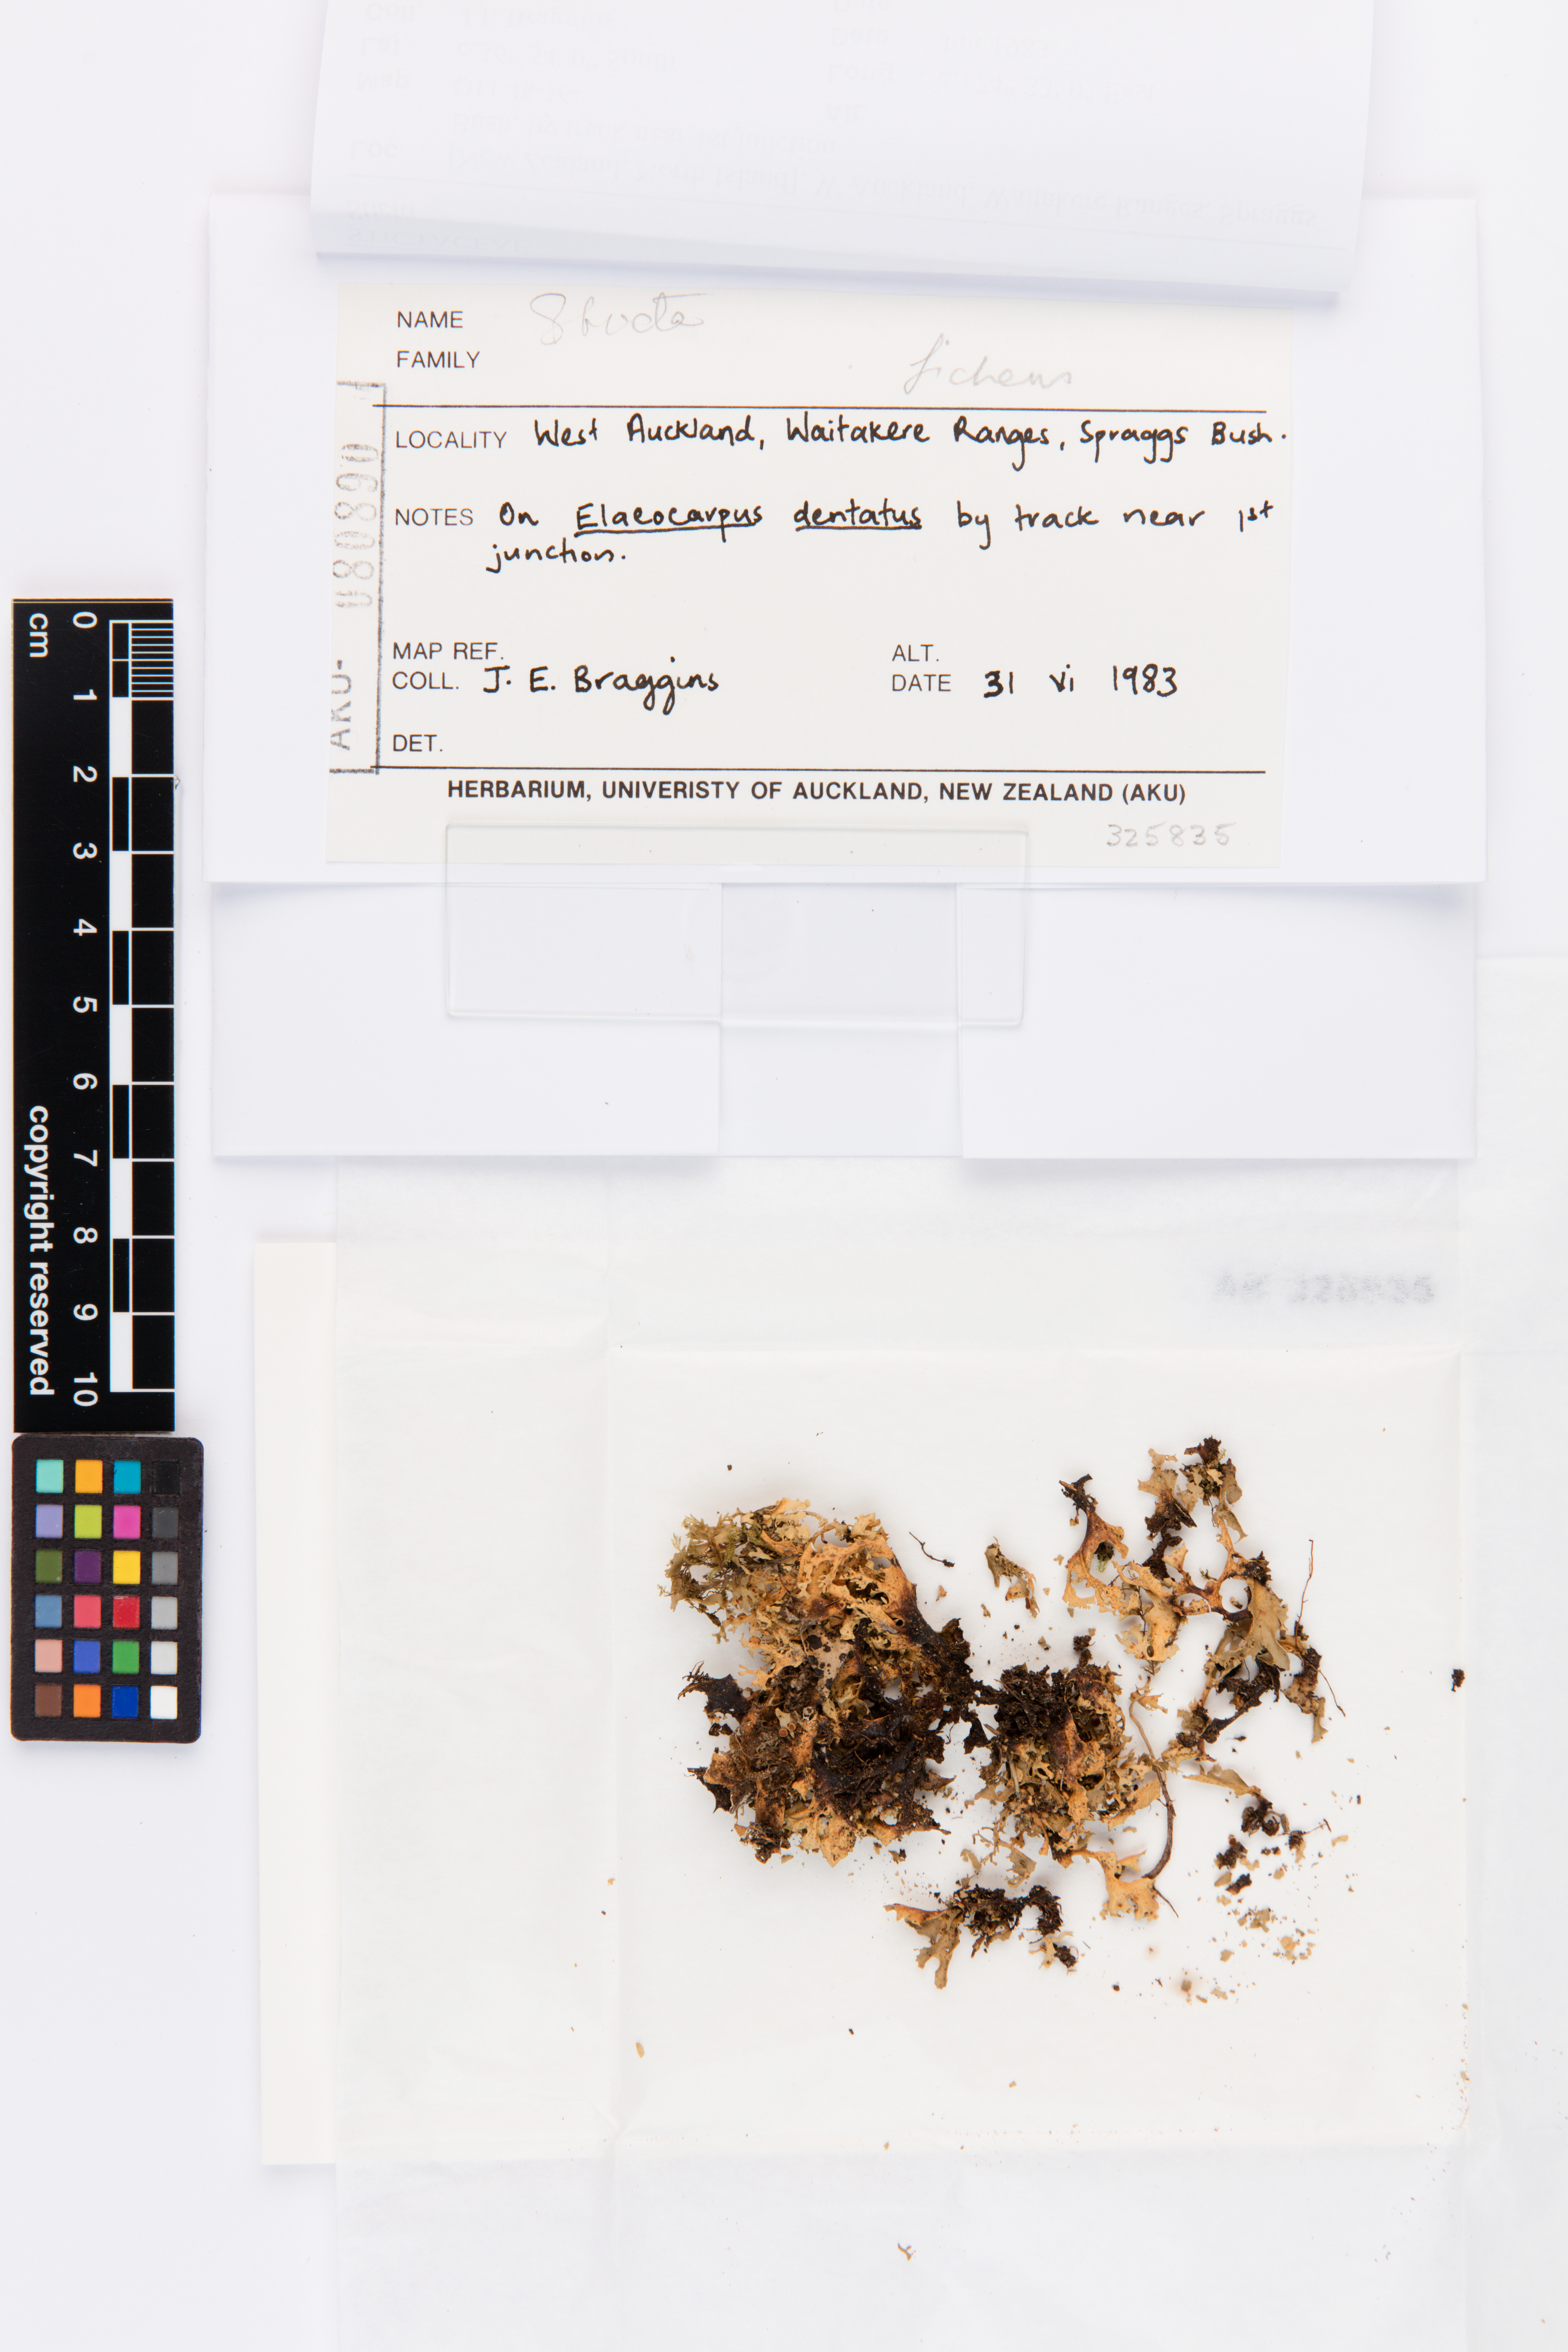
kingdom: Fungi
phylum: Ascomycota
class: Lecanoromycetes
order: Peltigerales
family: Lobariaceae
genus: Sticta
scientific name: Sticta
